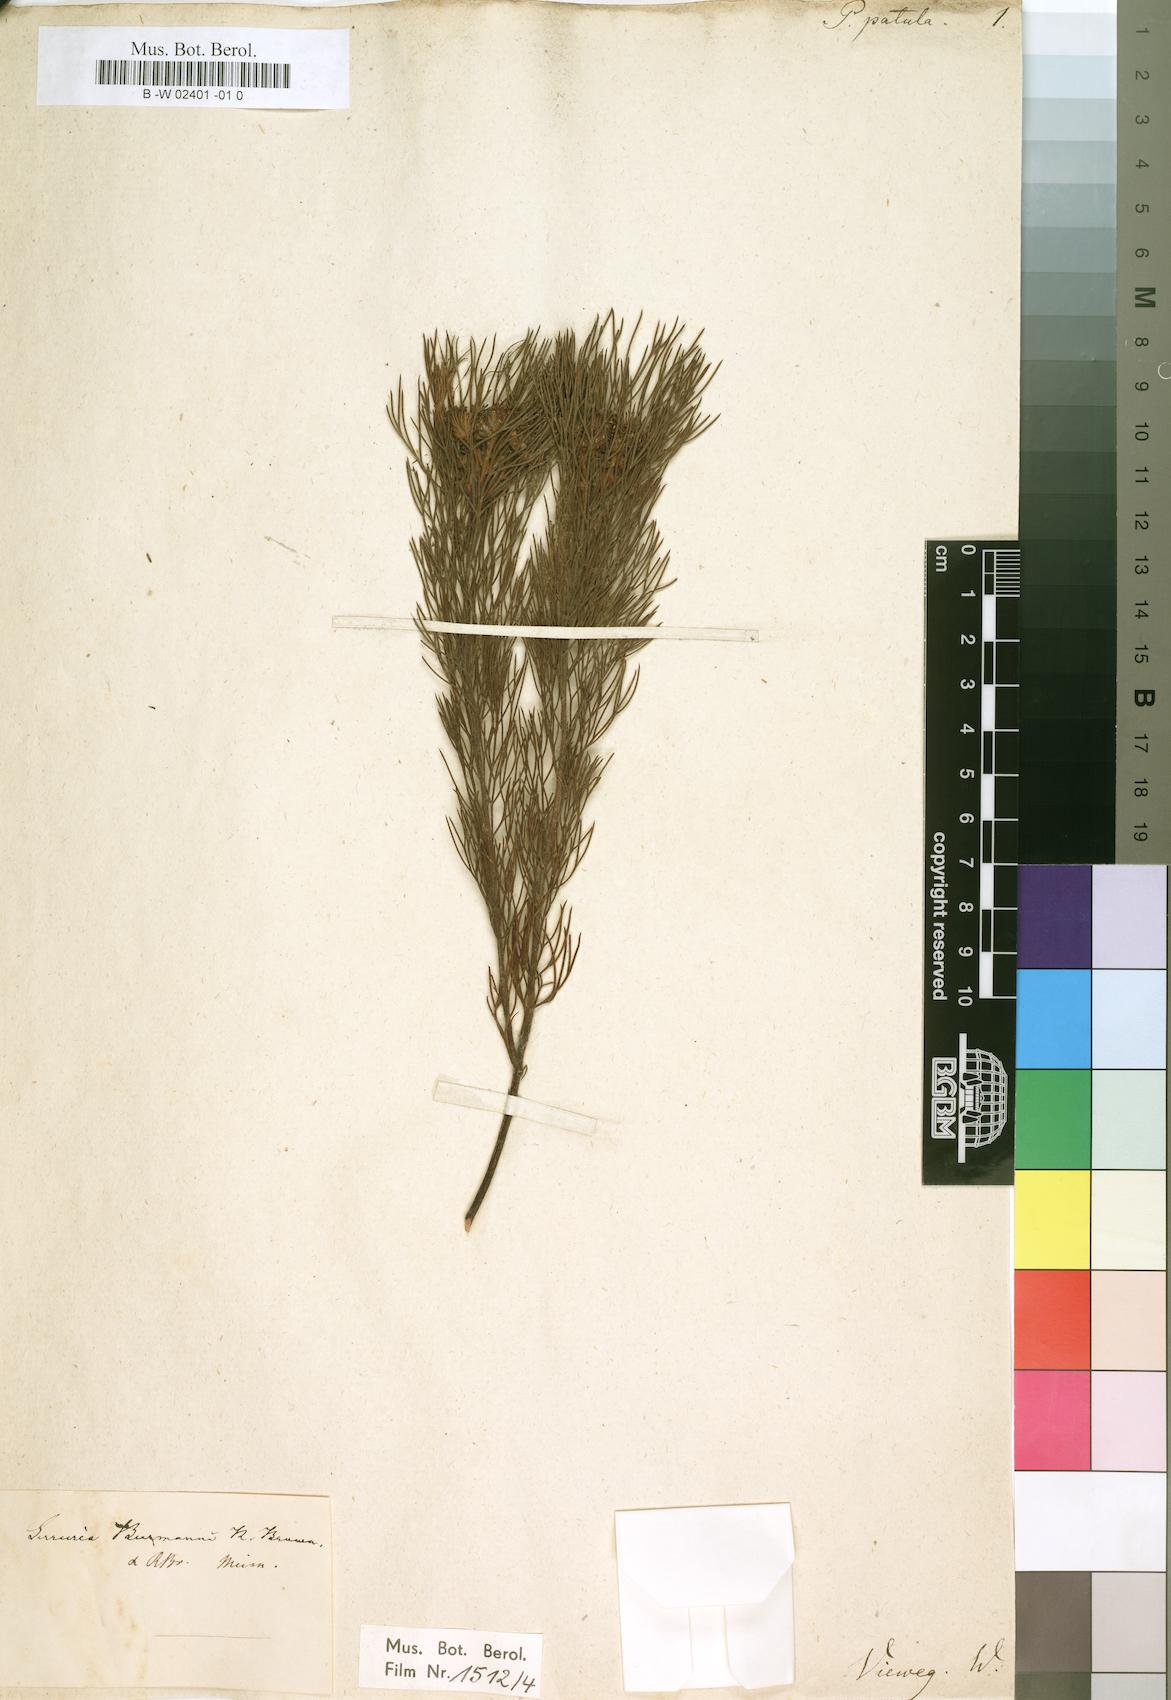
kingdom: Plantae
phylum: Tracheophyta
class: Magnoliopsida
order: Proteales
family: Proteaceae
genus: Serruria
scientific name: Serruria
